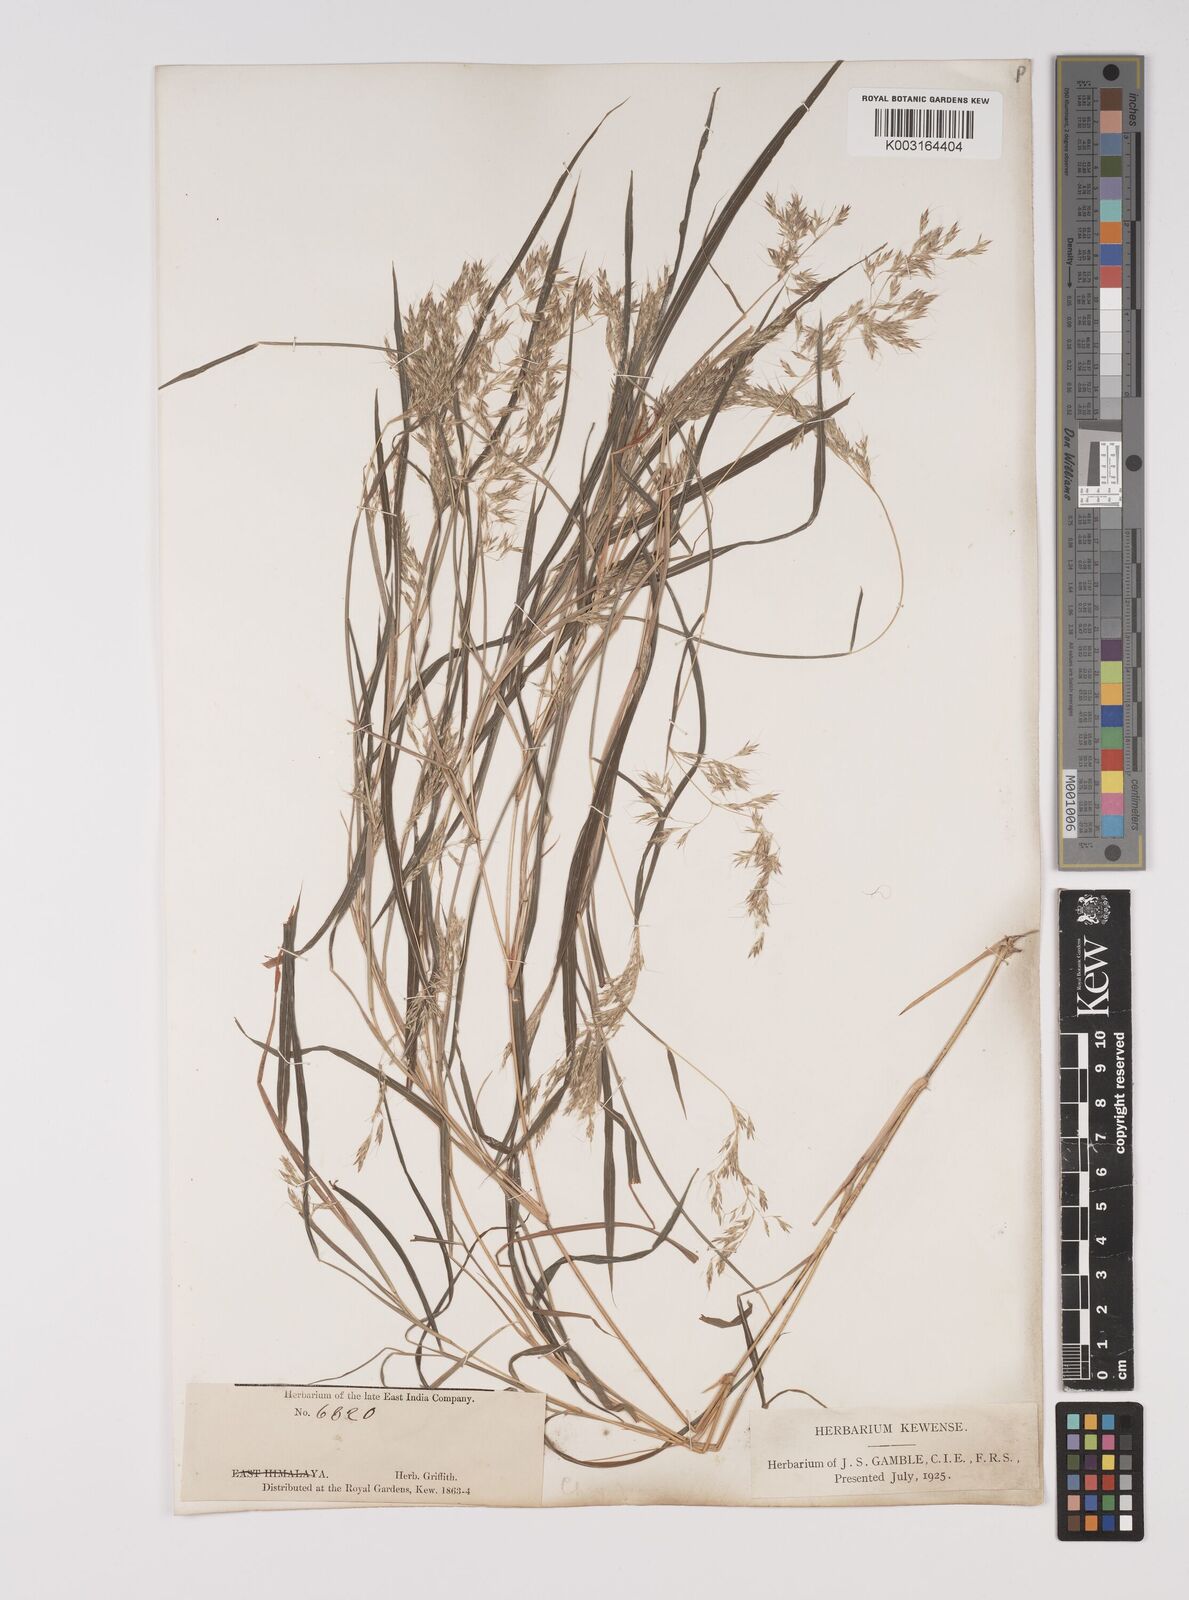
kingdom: Plantae
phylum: Tracheophyta
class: Liliopsida
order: Poales
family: Poaceae
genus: Capillipedium
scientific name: Capillipedium assimile
